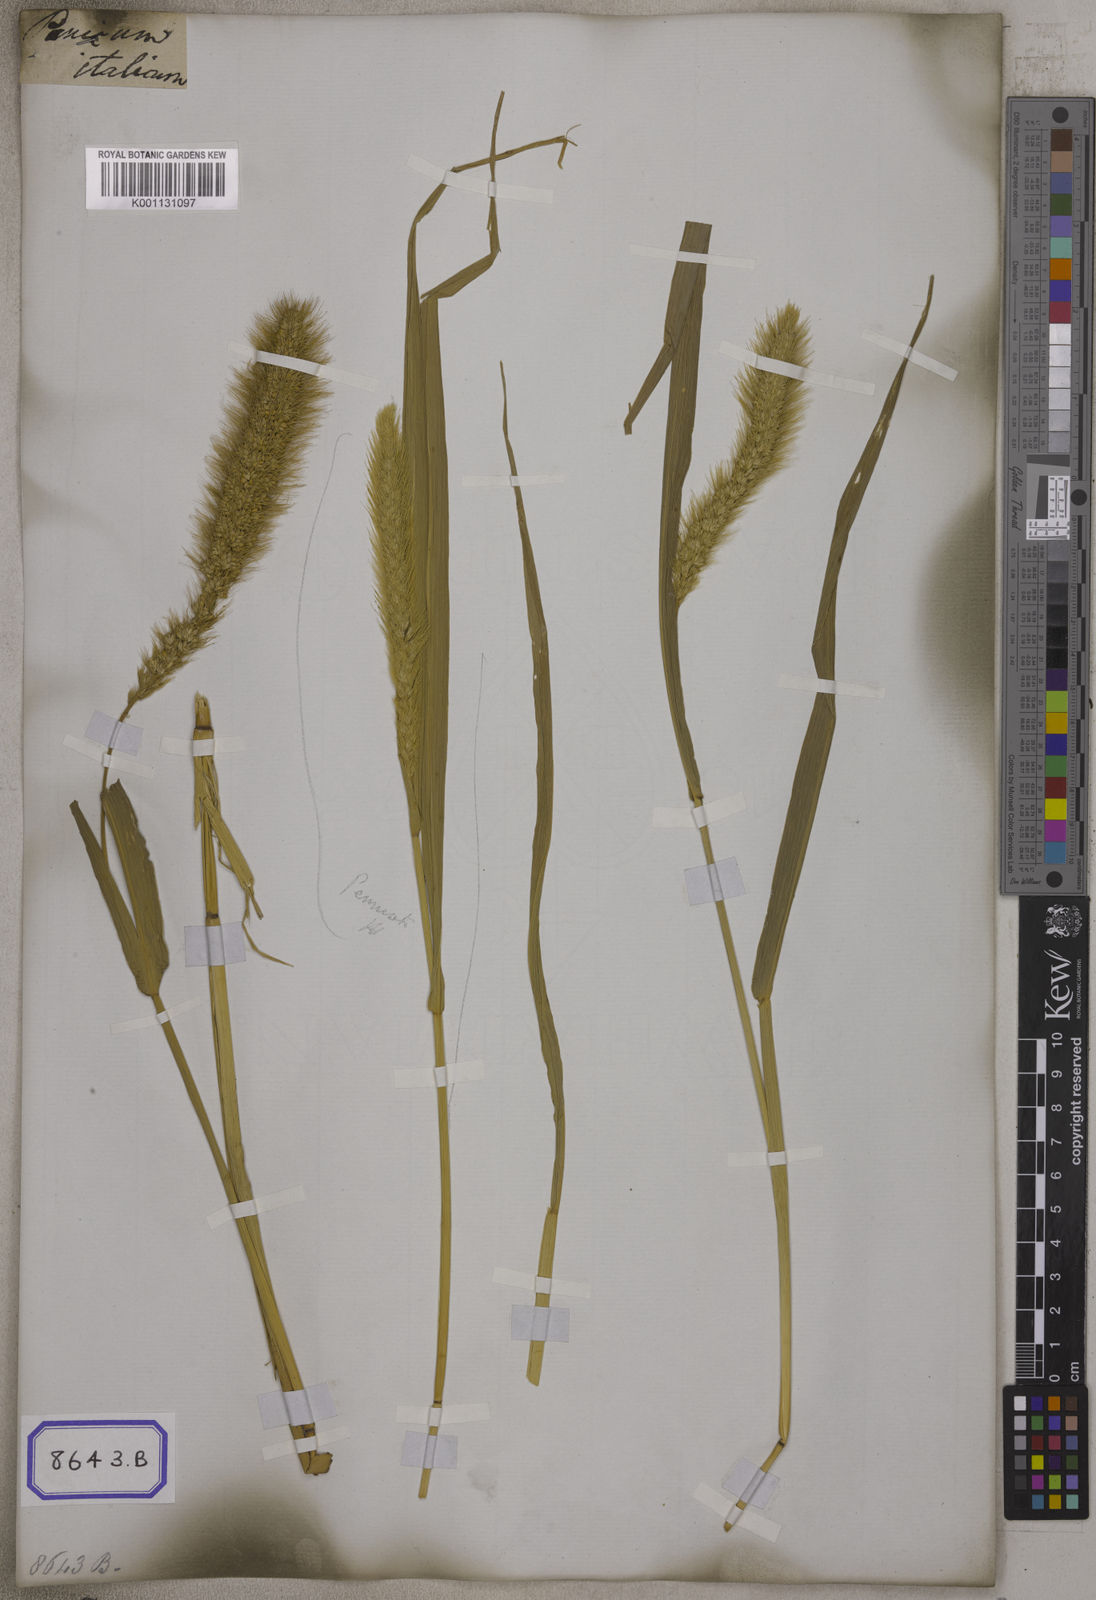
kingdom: Plantae
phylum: Tracheophyta
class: Liliopsida
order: Poales
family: Poaceae
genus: Setaria
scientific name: Setaria italica
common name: Foxtail bristle-grass
